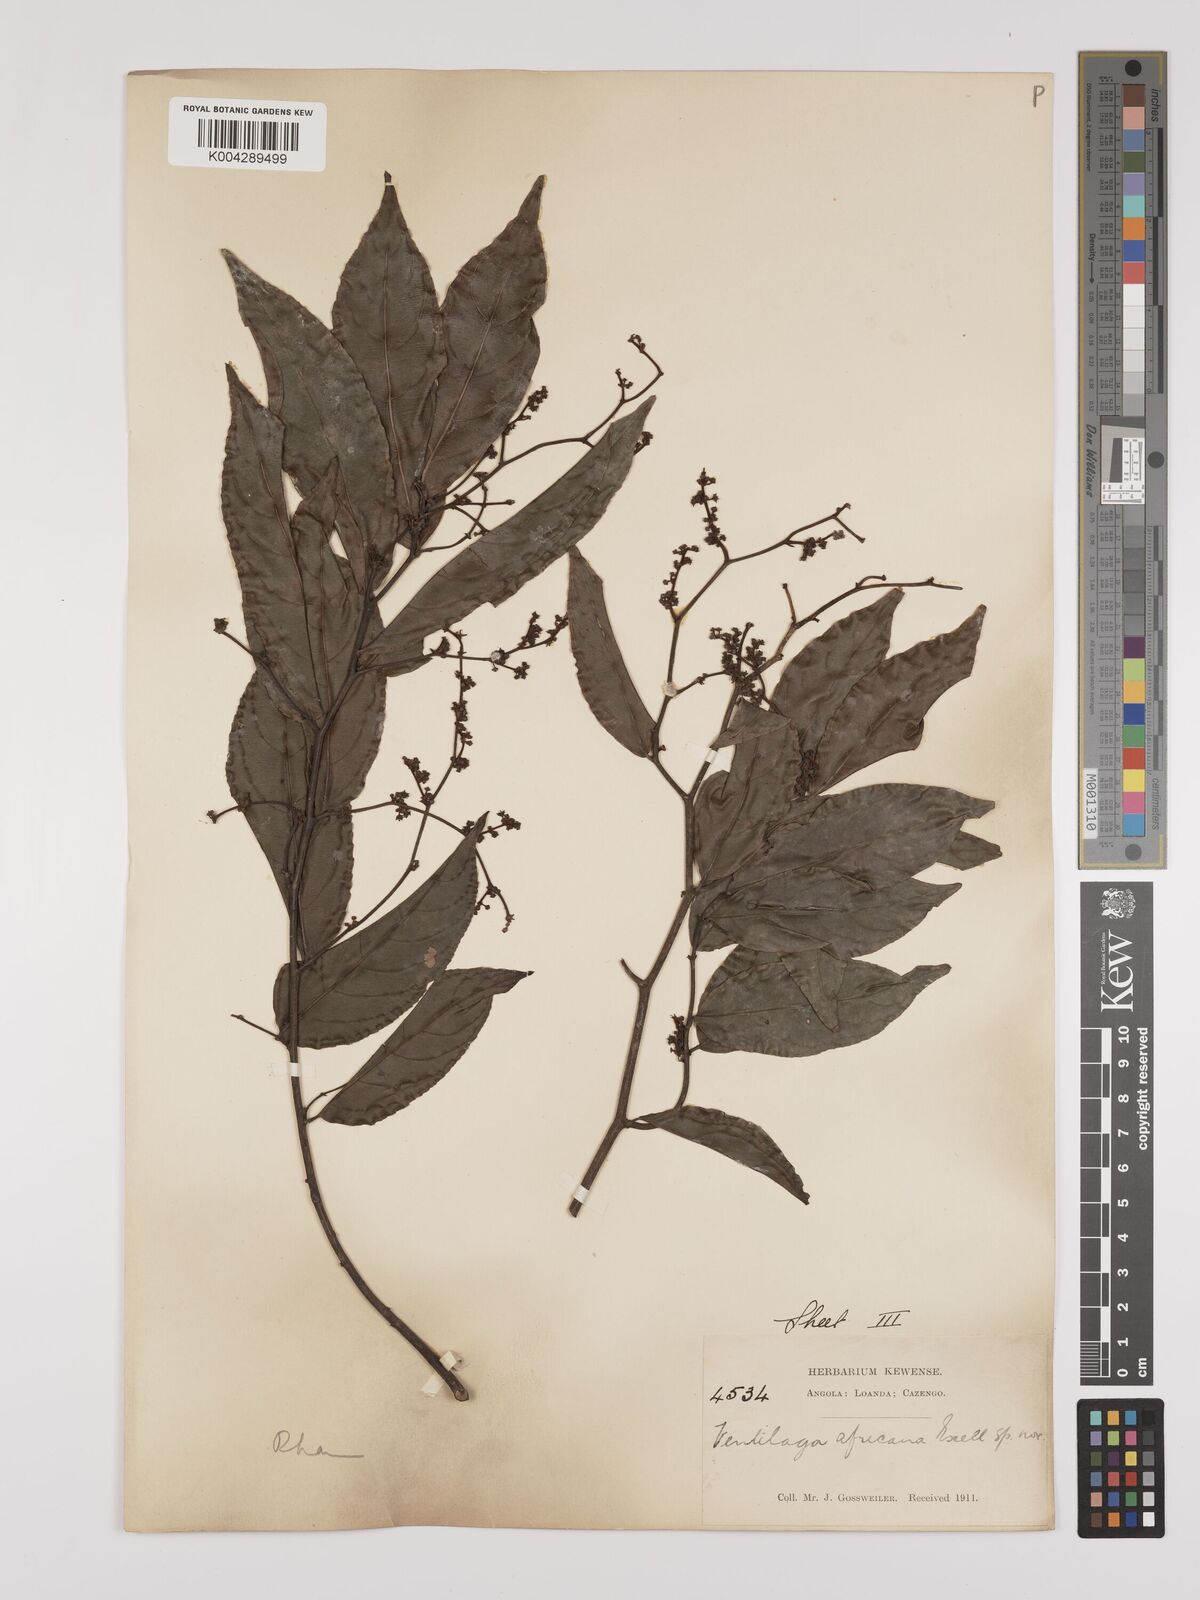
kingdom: Plantae
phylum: Tracheophyta
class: Magnoliopsida
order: Rosales
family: Rhamnaceae
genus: Ventilago
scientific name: Ventilago africana
